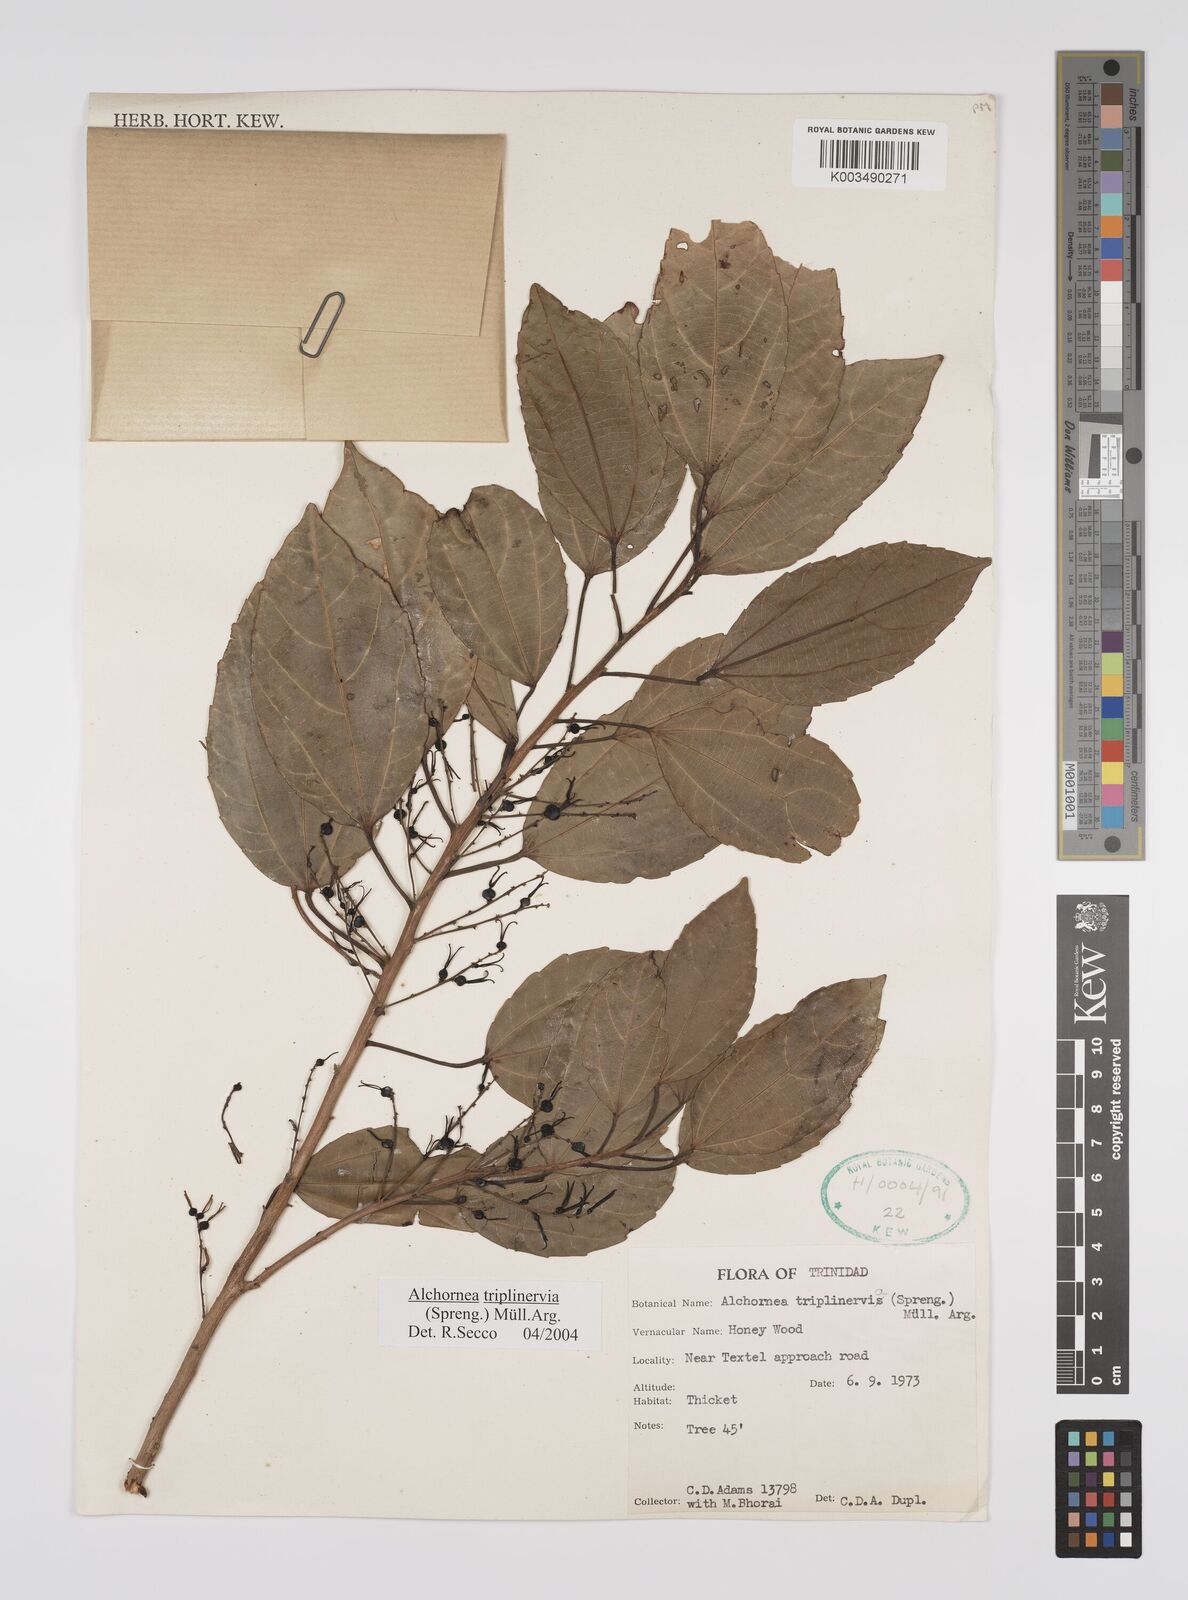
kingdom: Plantae
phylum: Tracheophyta
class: Magnoliopsida
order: Malpighiales
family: Euphorbiaceae
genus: Alchornea
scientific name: Alchornea latifolia
